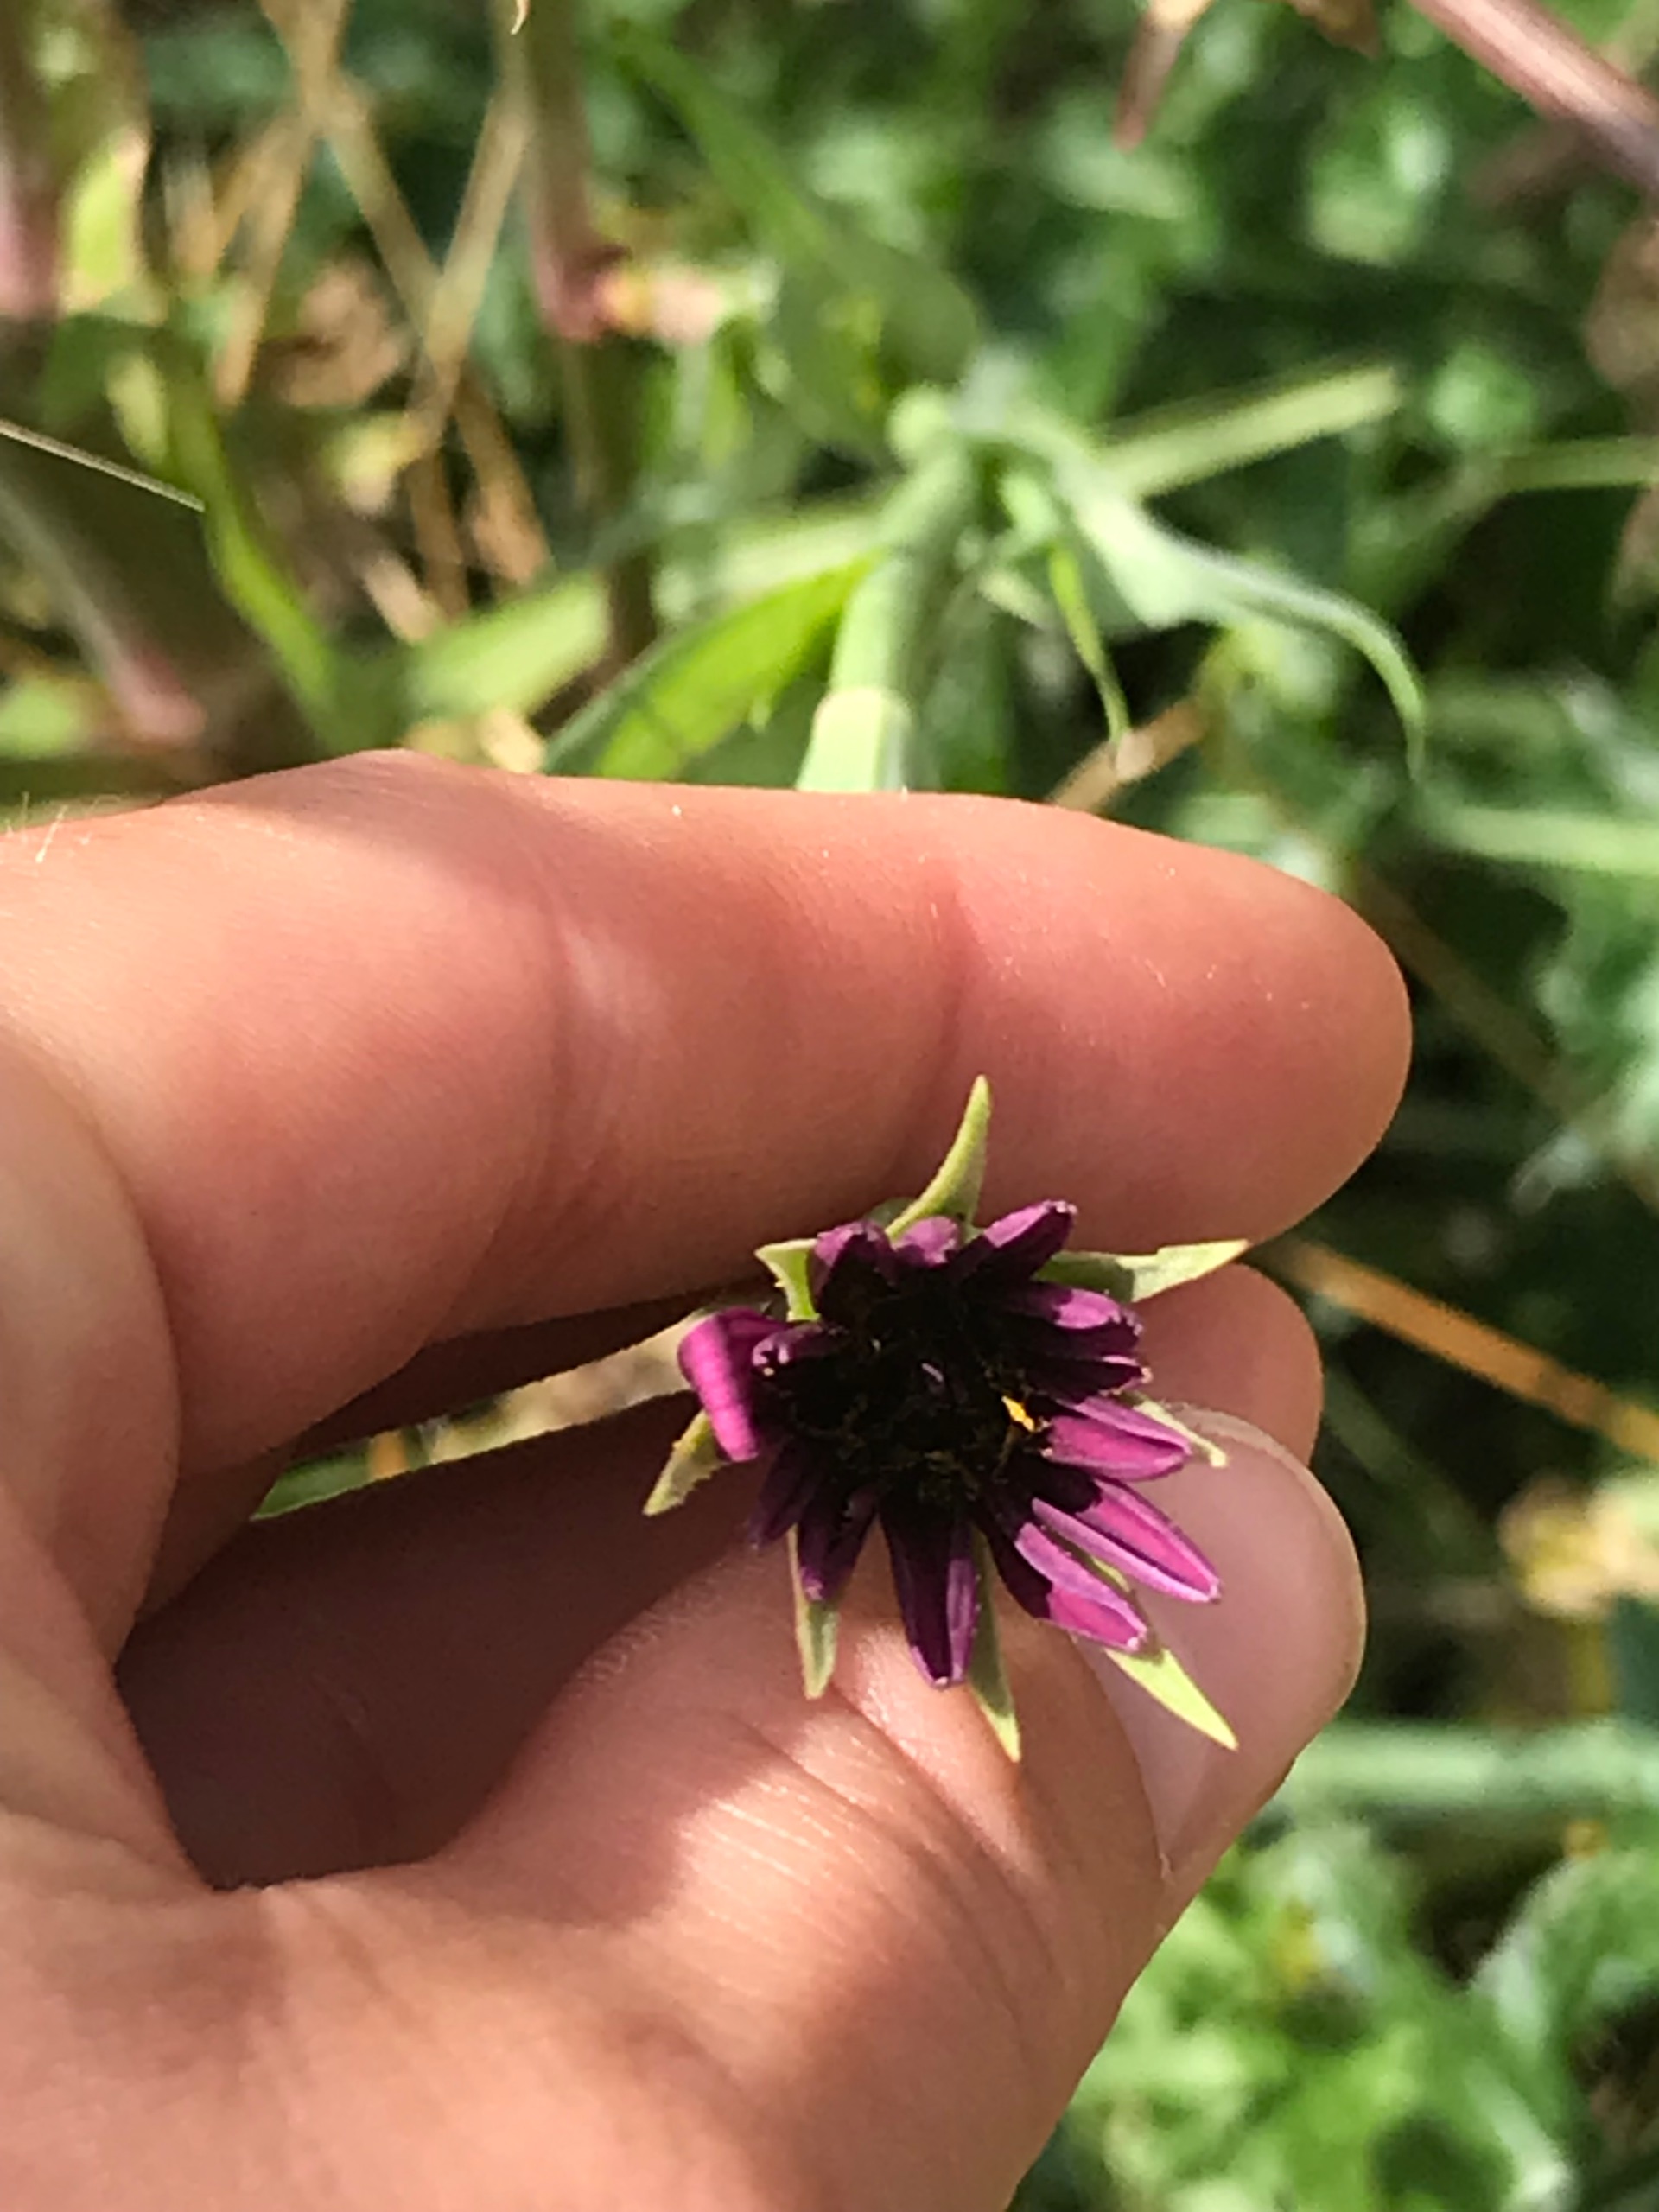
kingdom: Plantae
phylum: Tracheophyta
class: Magnoliopsida
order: Asterales
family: Asteraceae
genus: Tragopogon
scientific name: Tragopogon porrifolius
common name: Havrerod
